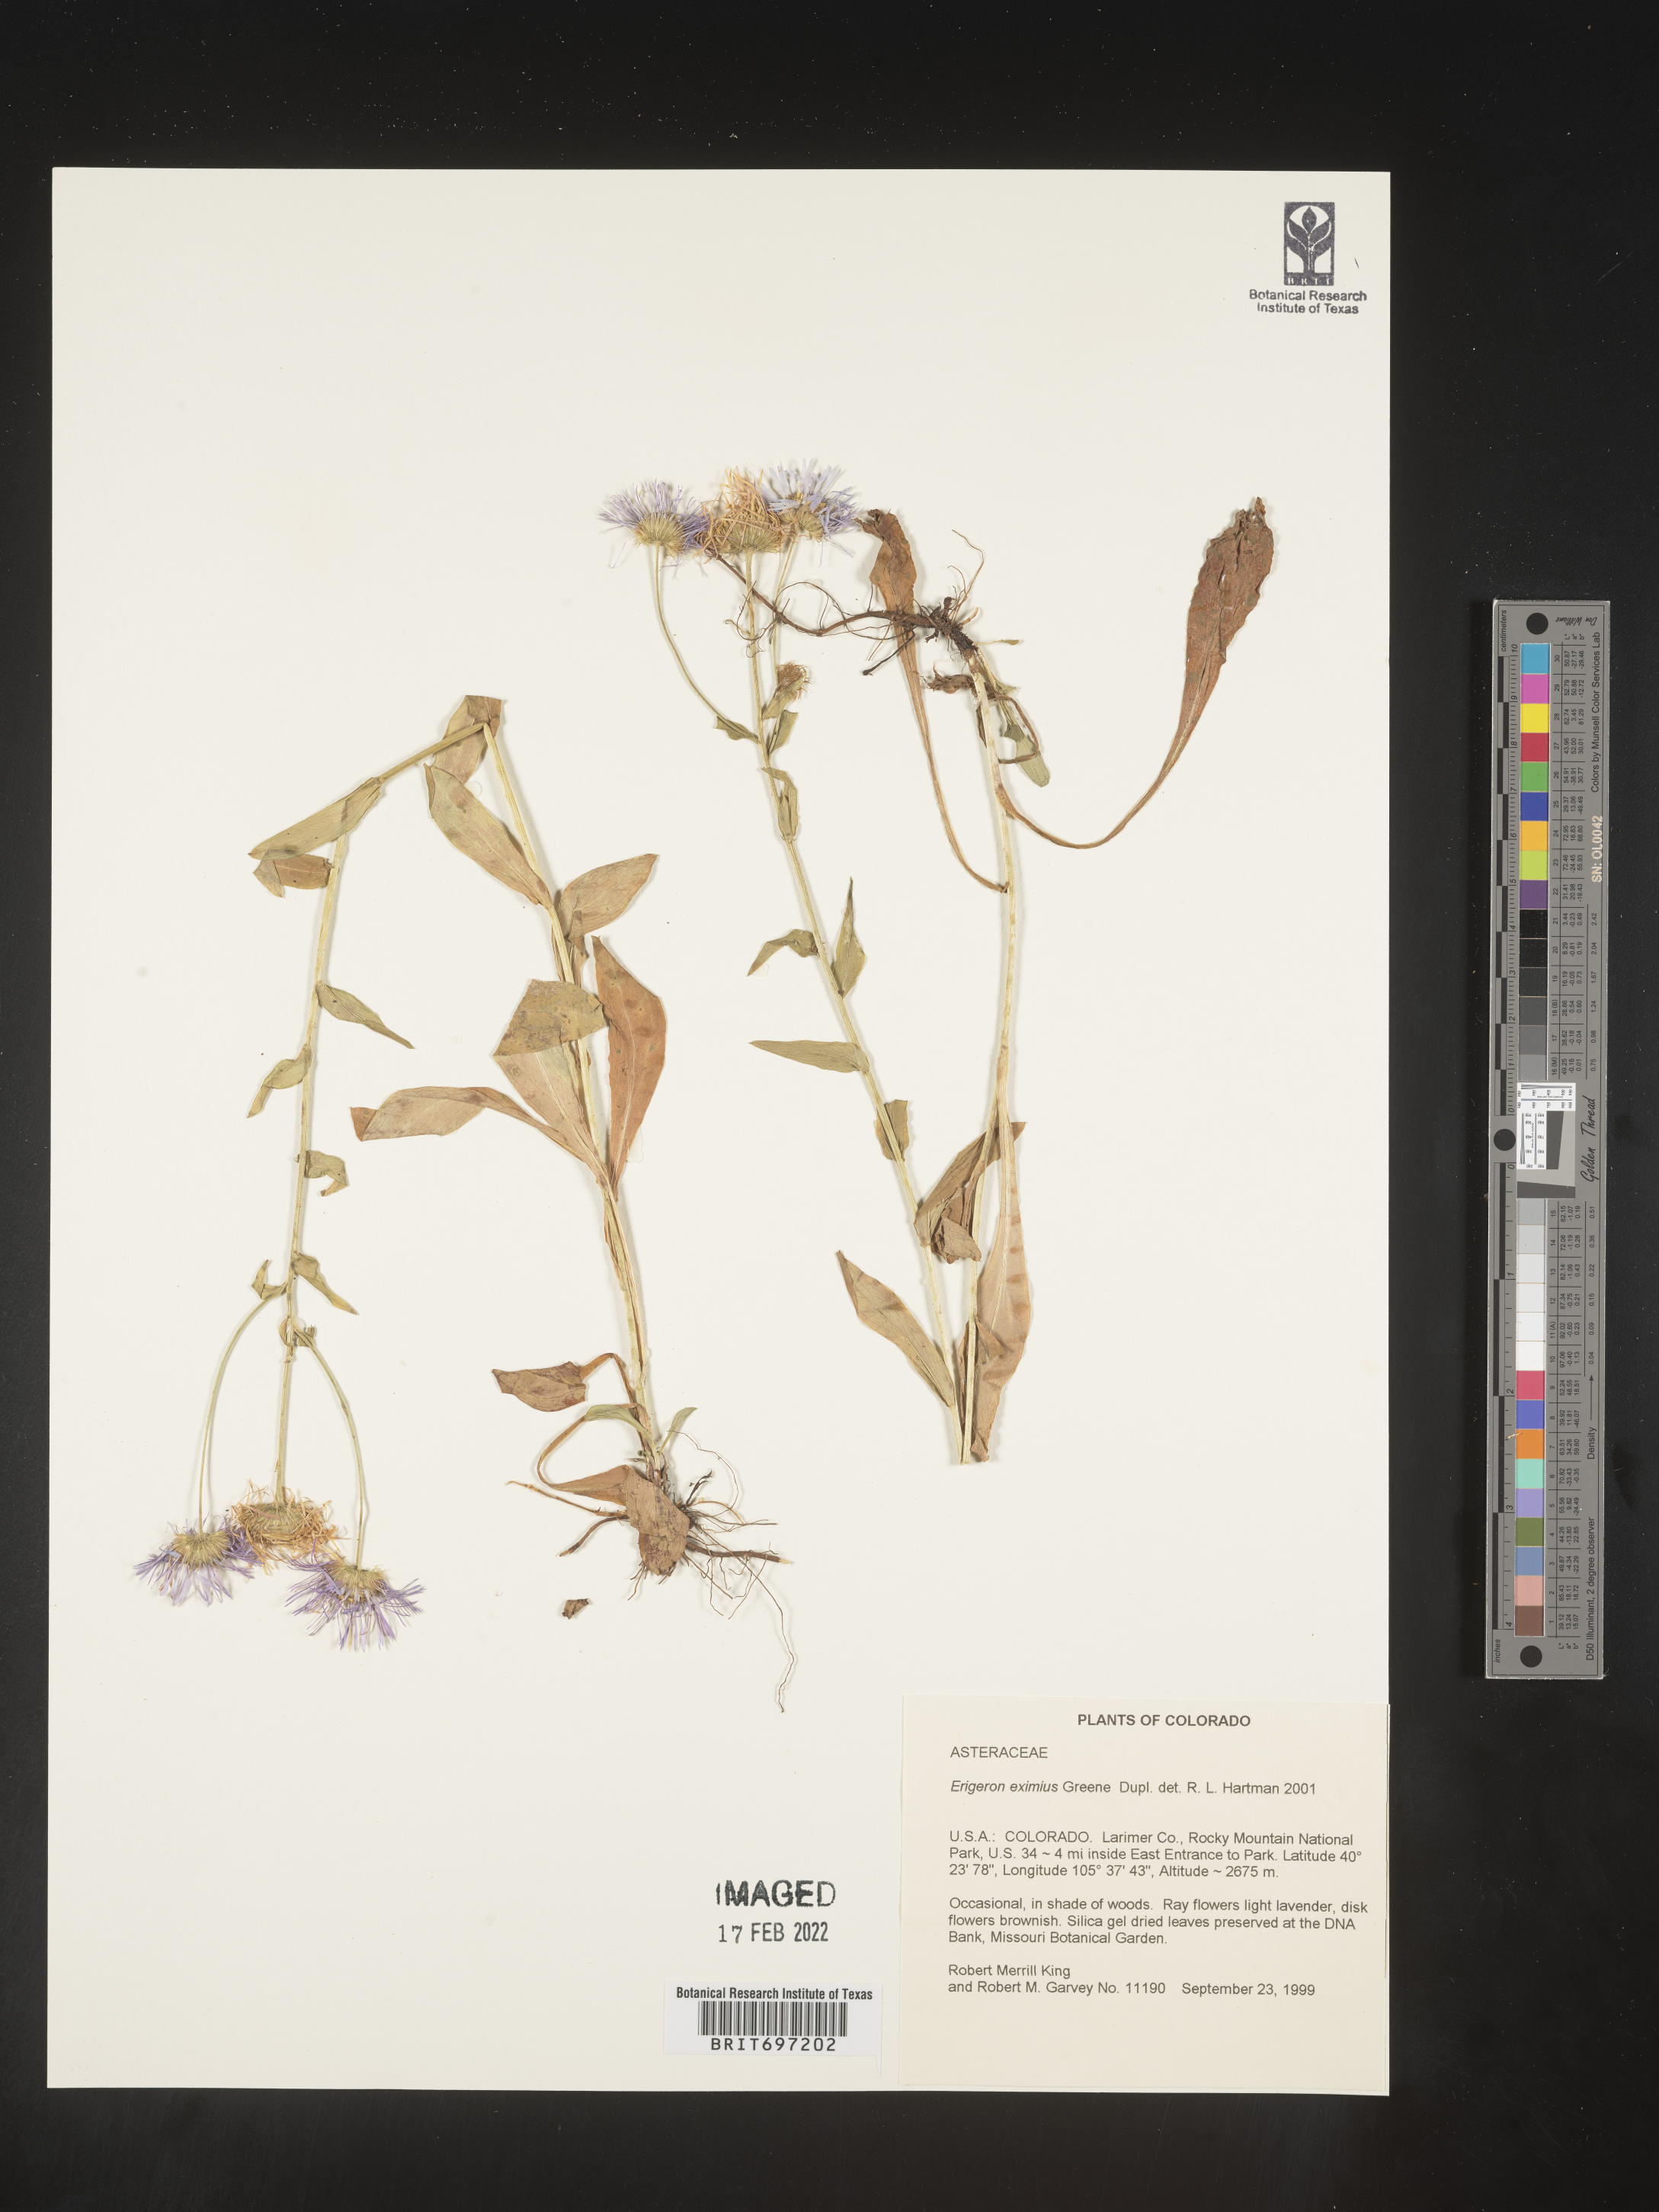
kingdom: Plantae
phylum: Tracheophyta
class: Magnoliopsida
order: Asterales
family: Asteraceae
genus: Erigeron
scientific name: Erigeron eximius
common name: Spruce-fir fleabane
